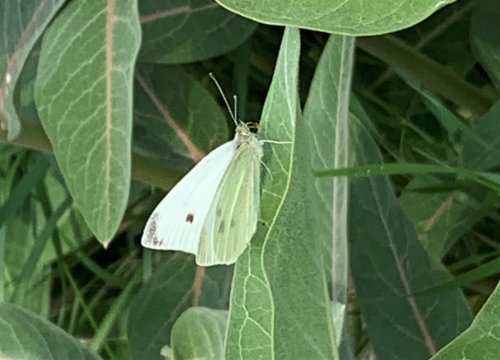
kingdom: Animalia
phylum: Arthropoda
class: Insecta
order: Lepidoptera
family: Pieridae
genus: Pieris
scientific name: Pieris rapae
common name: Cabbage White
